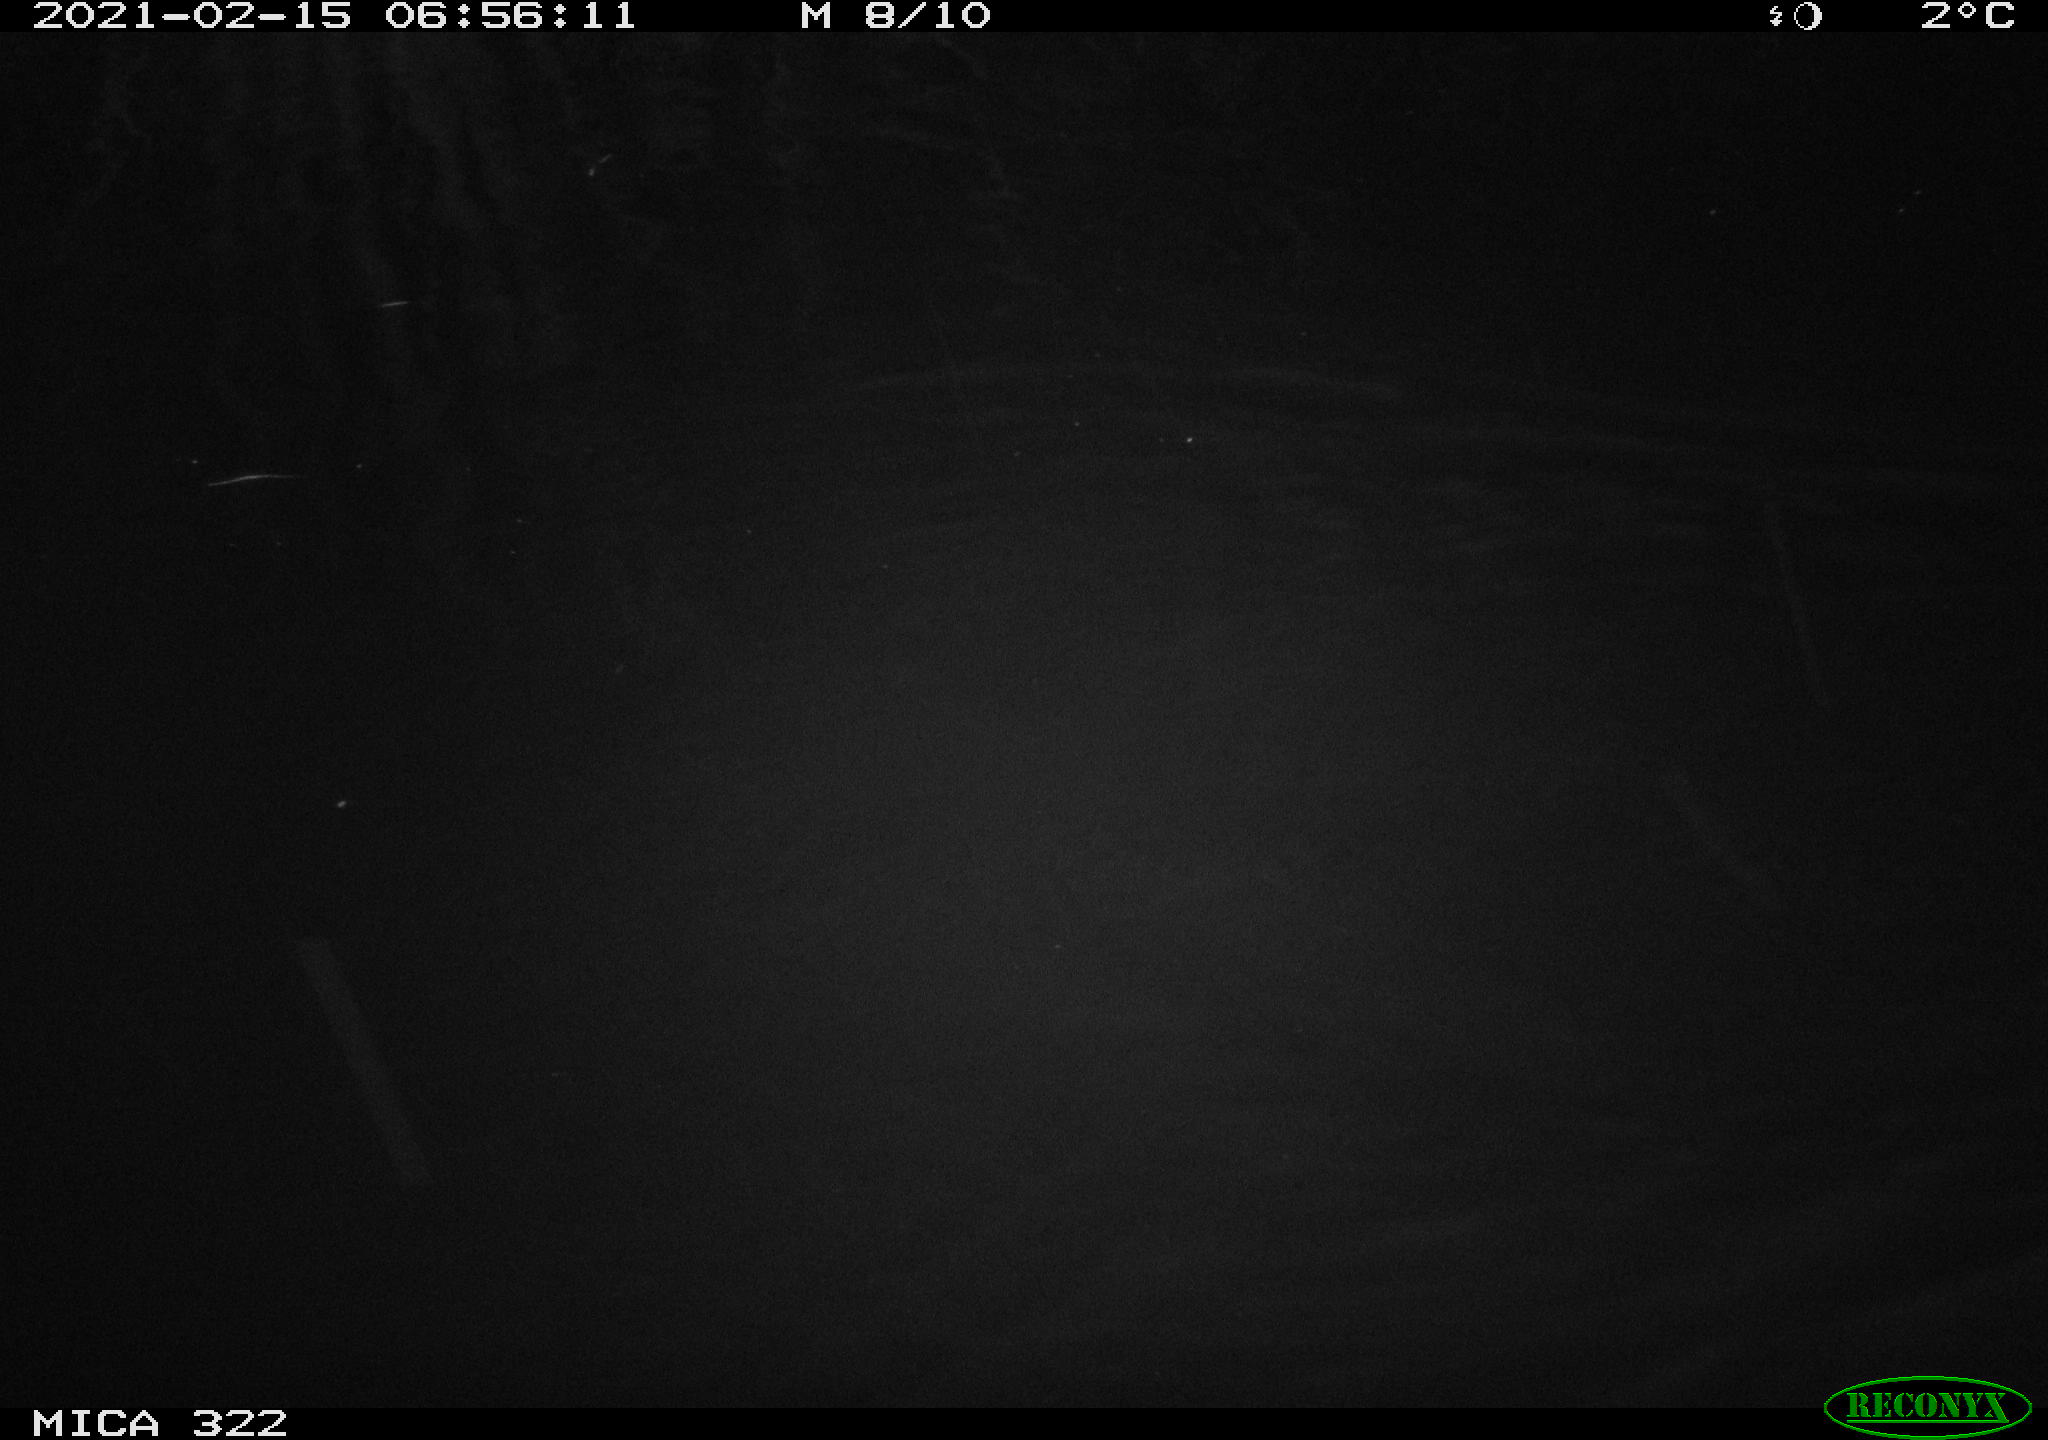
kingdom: Animalia
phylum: Chordata
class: Aves
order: Gruiformes
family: Rallidae
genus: Fulica
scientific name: Fulica atra
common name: Eurasian coot
